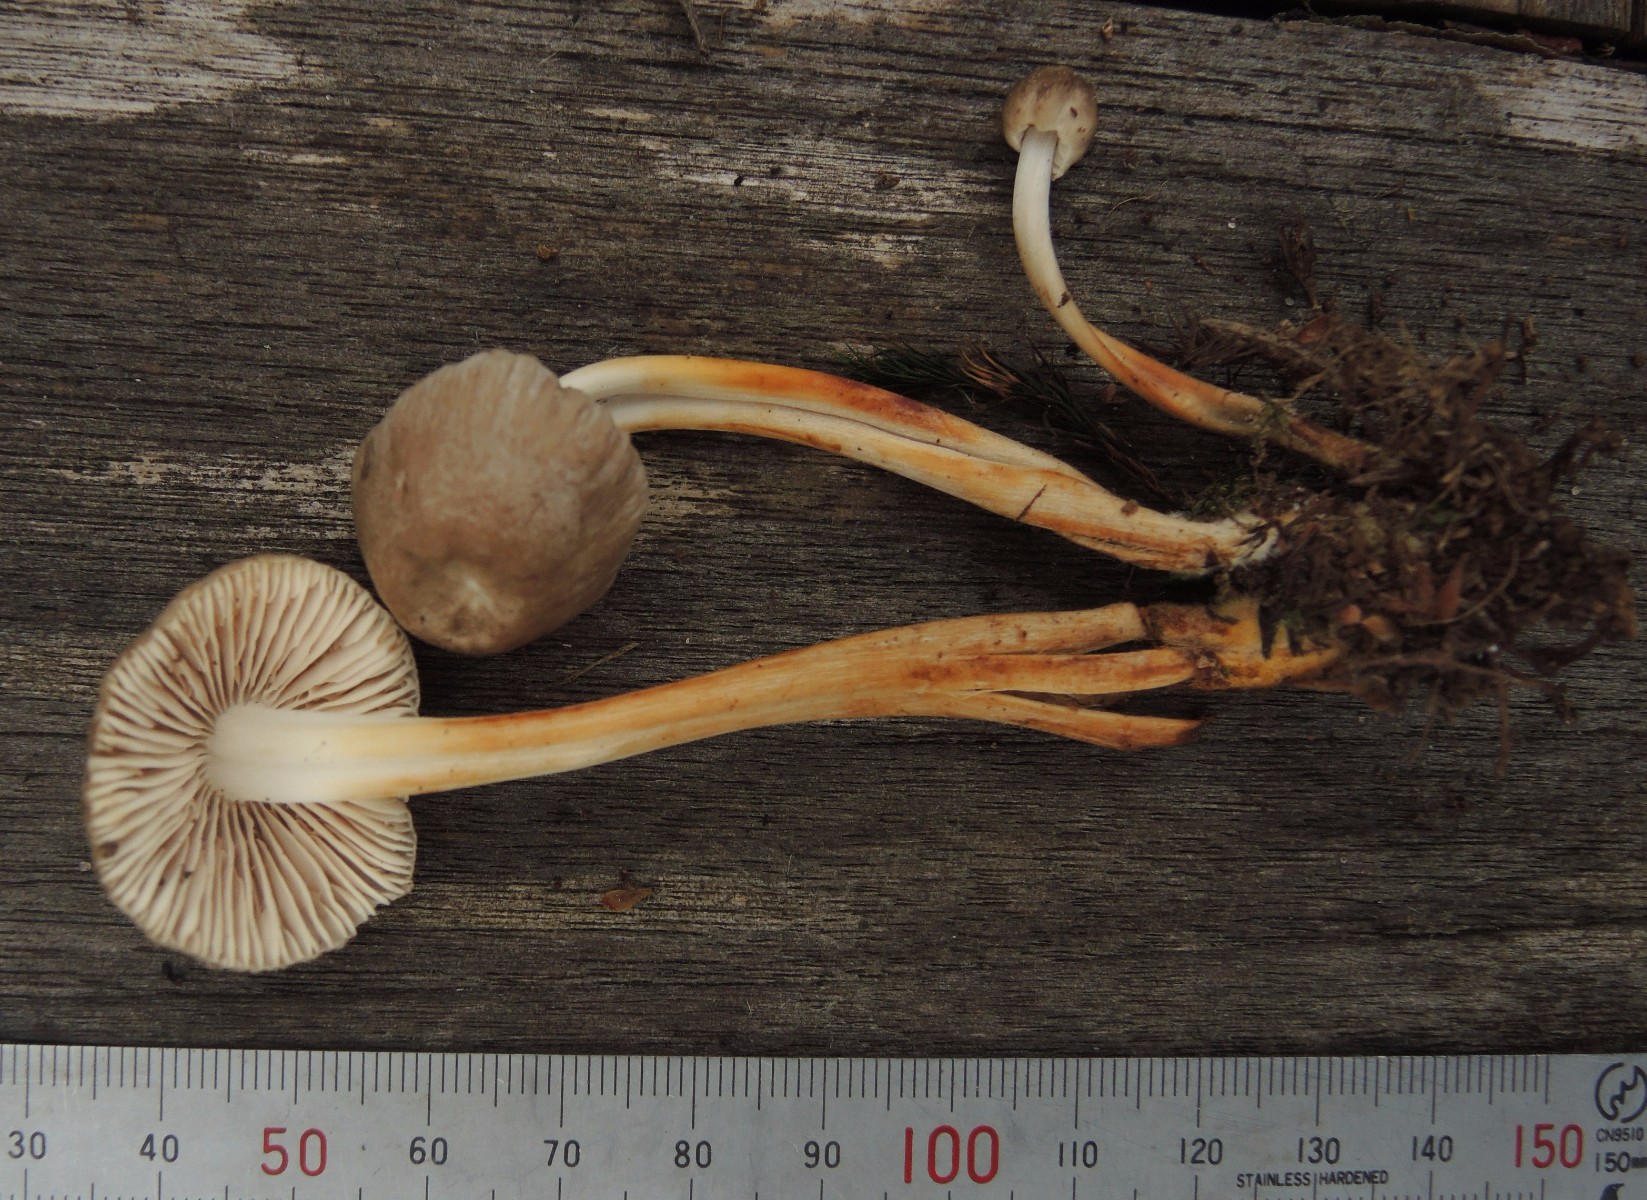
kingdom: Fungi
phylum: Basidiomycota
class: Agaricomycetes
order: Agaricales
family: Mycenaceae
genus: Mycena
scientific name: Mycena inclinata
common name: nikkende huesvamp
